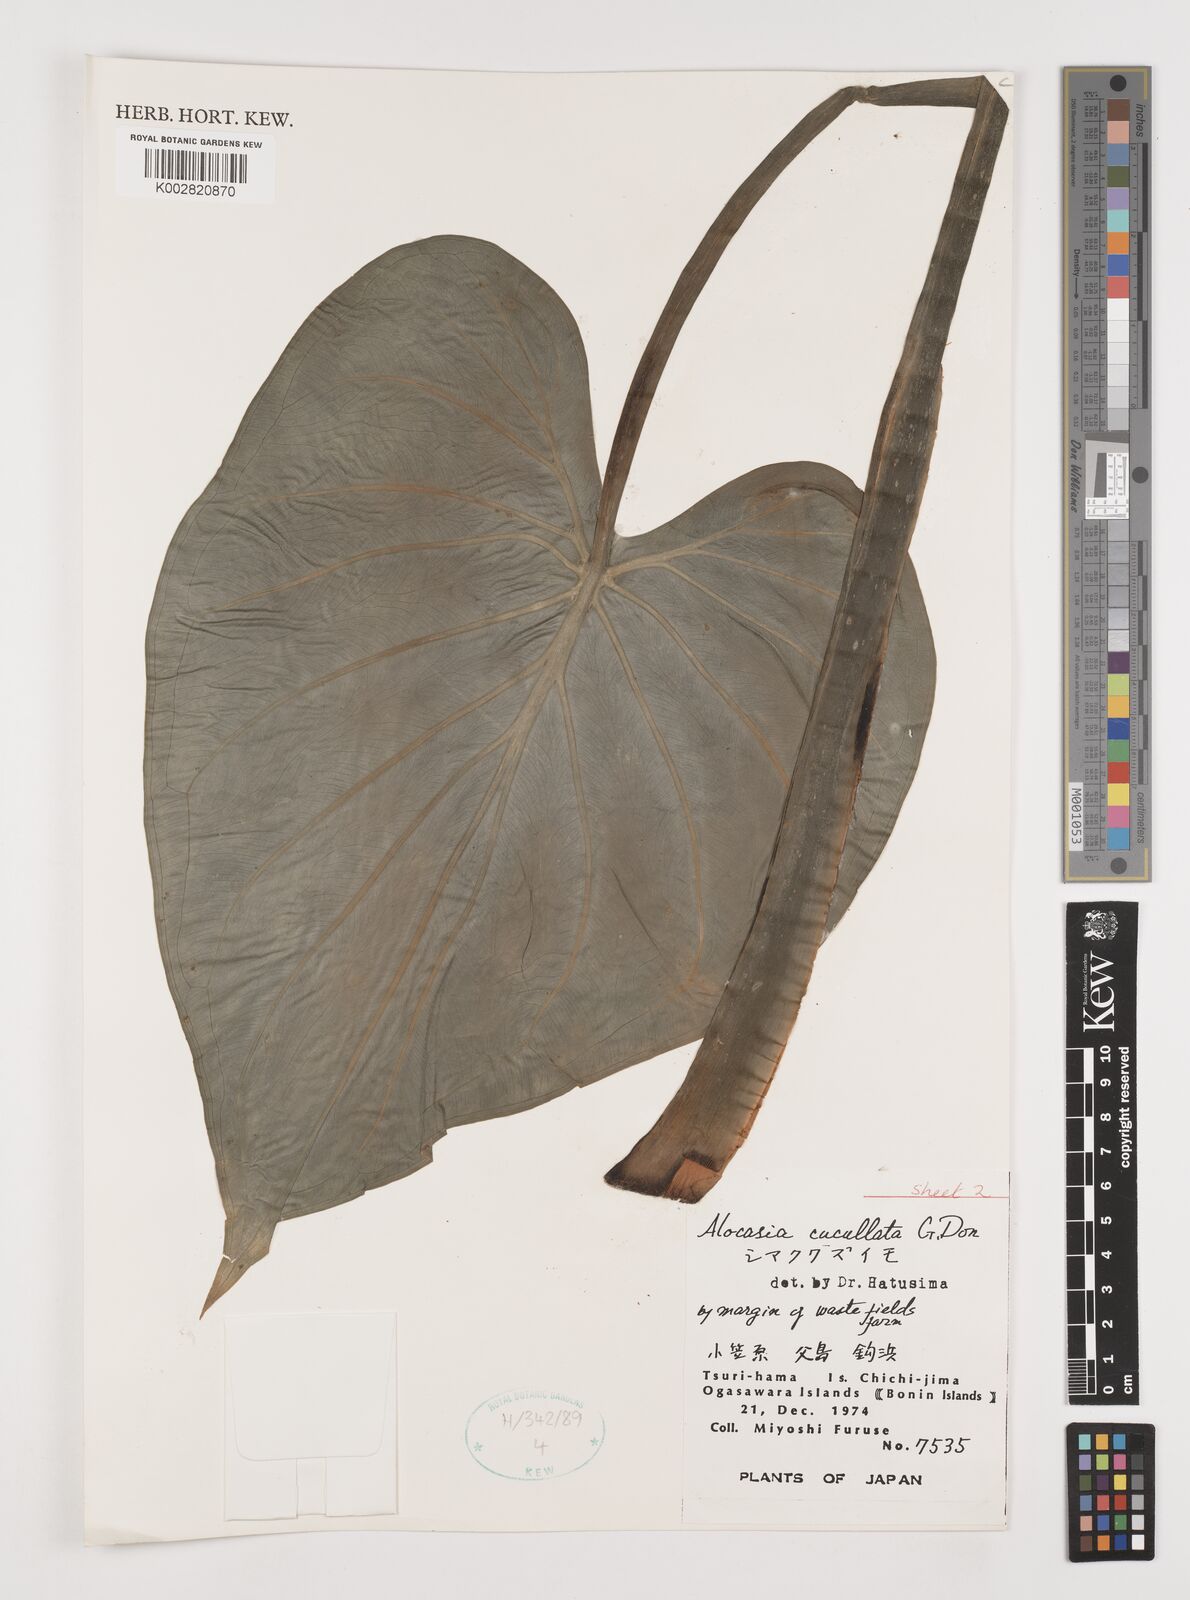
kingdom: Plantae
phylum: Tracheophyta
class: Liliopsida
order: Alismatales
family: Araceae
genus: Alocasia
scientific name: Alocasia cucullata
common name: Buddha's hand
